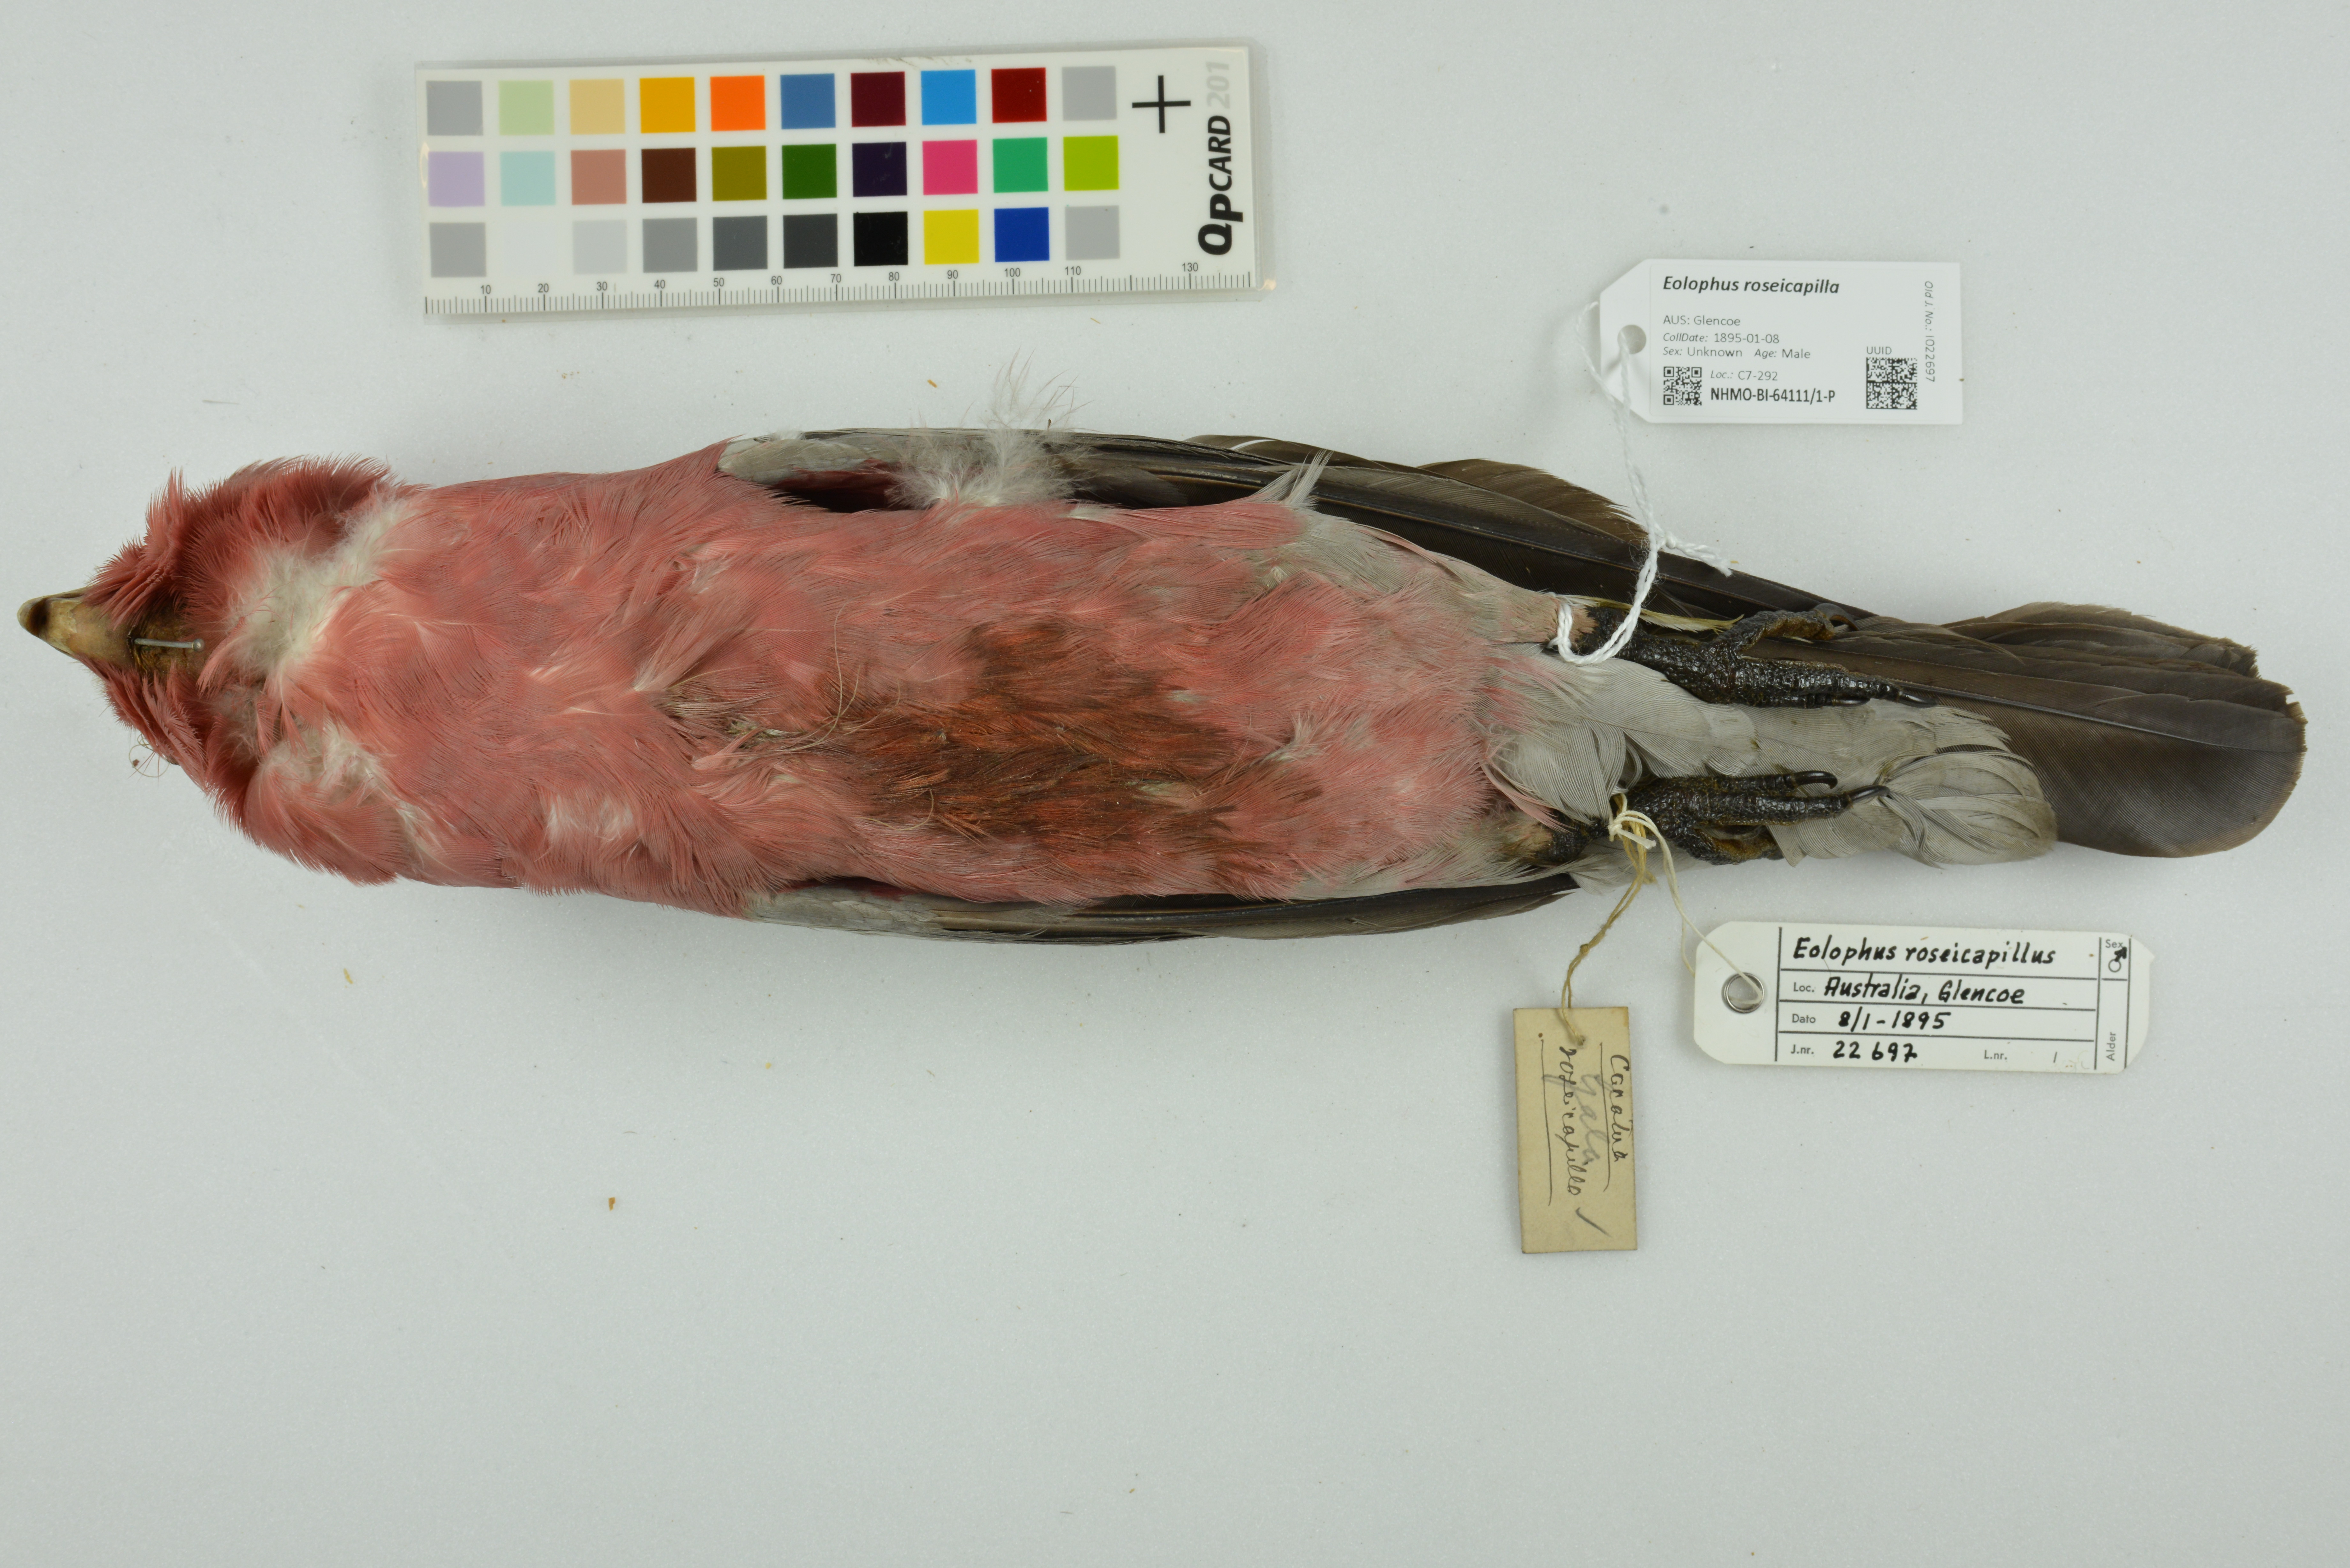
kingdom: Animalia
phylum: Chordata
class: Aves
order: Psittaciformes
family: Psittacidae
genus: Eolophus
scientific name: Eolophus roseicapilla
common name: Galah
